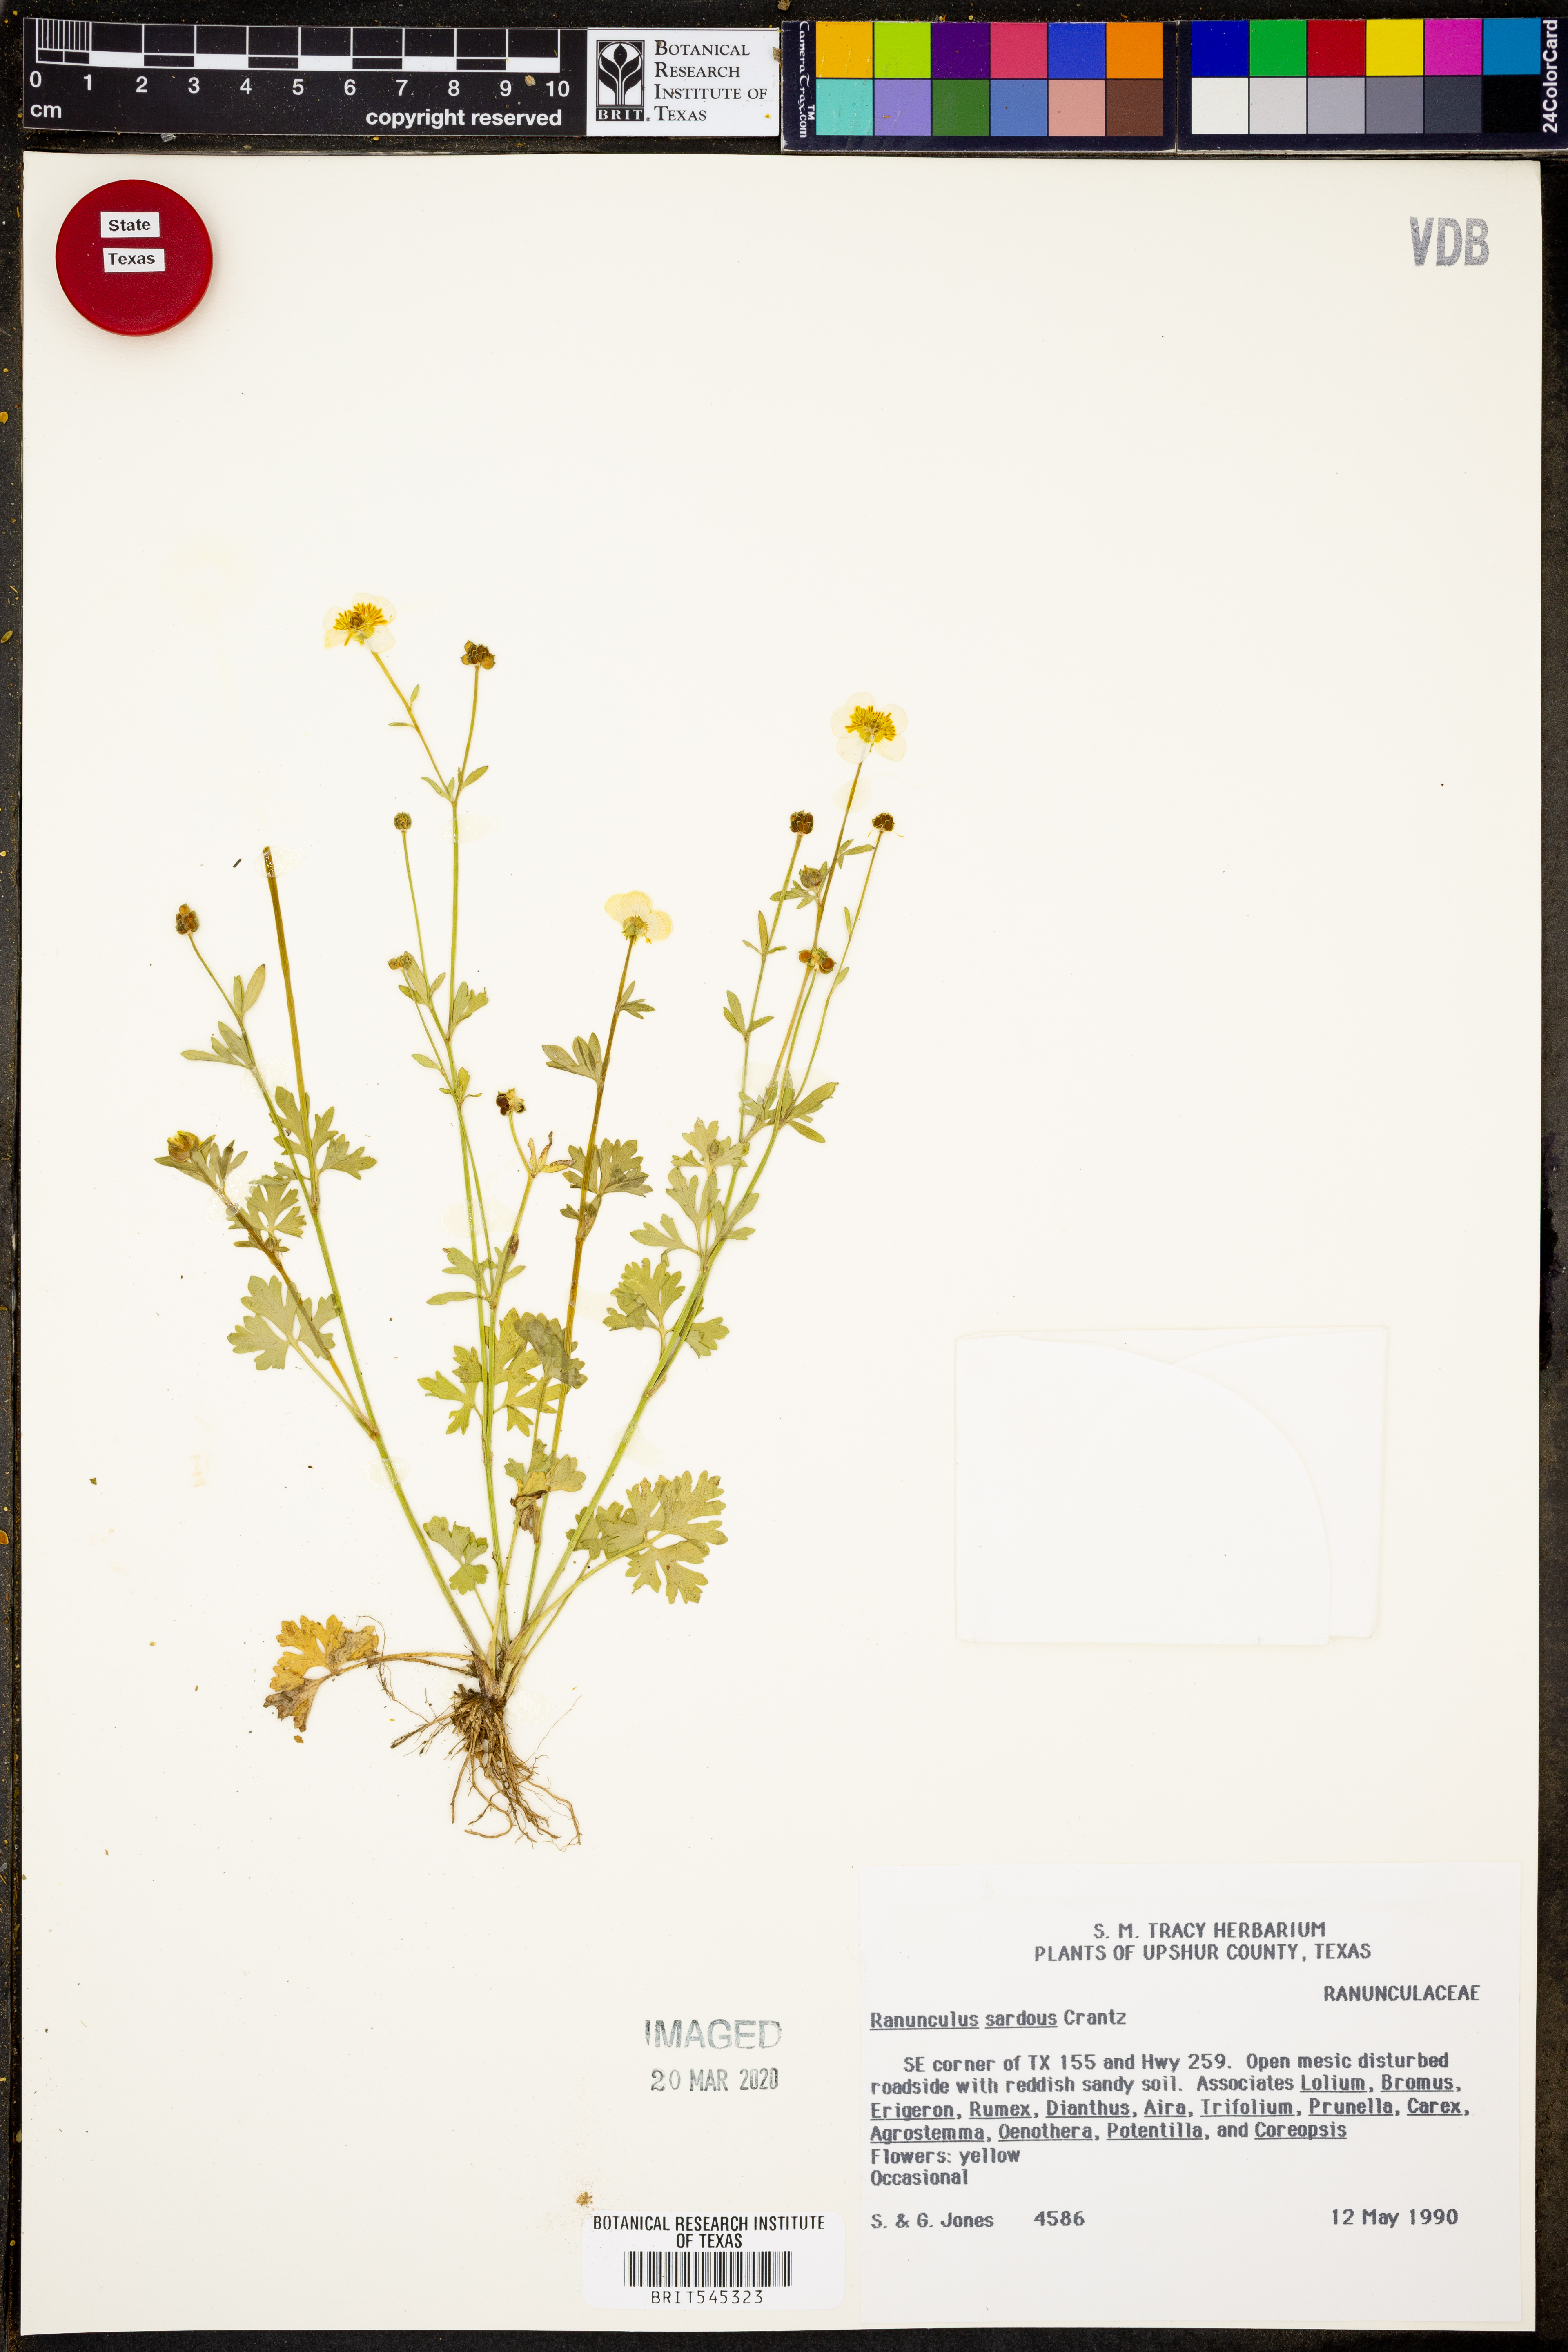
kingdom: Plantae
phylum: Tracheophyta
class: Magnoliopsida
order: Ranunculales
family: Ranunculaceae
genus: Ranunculus
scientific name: Ranunculus sardous
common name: Hairy buttercup
